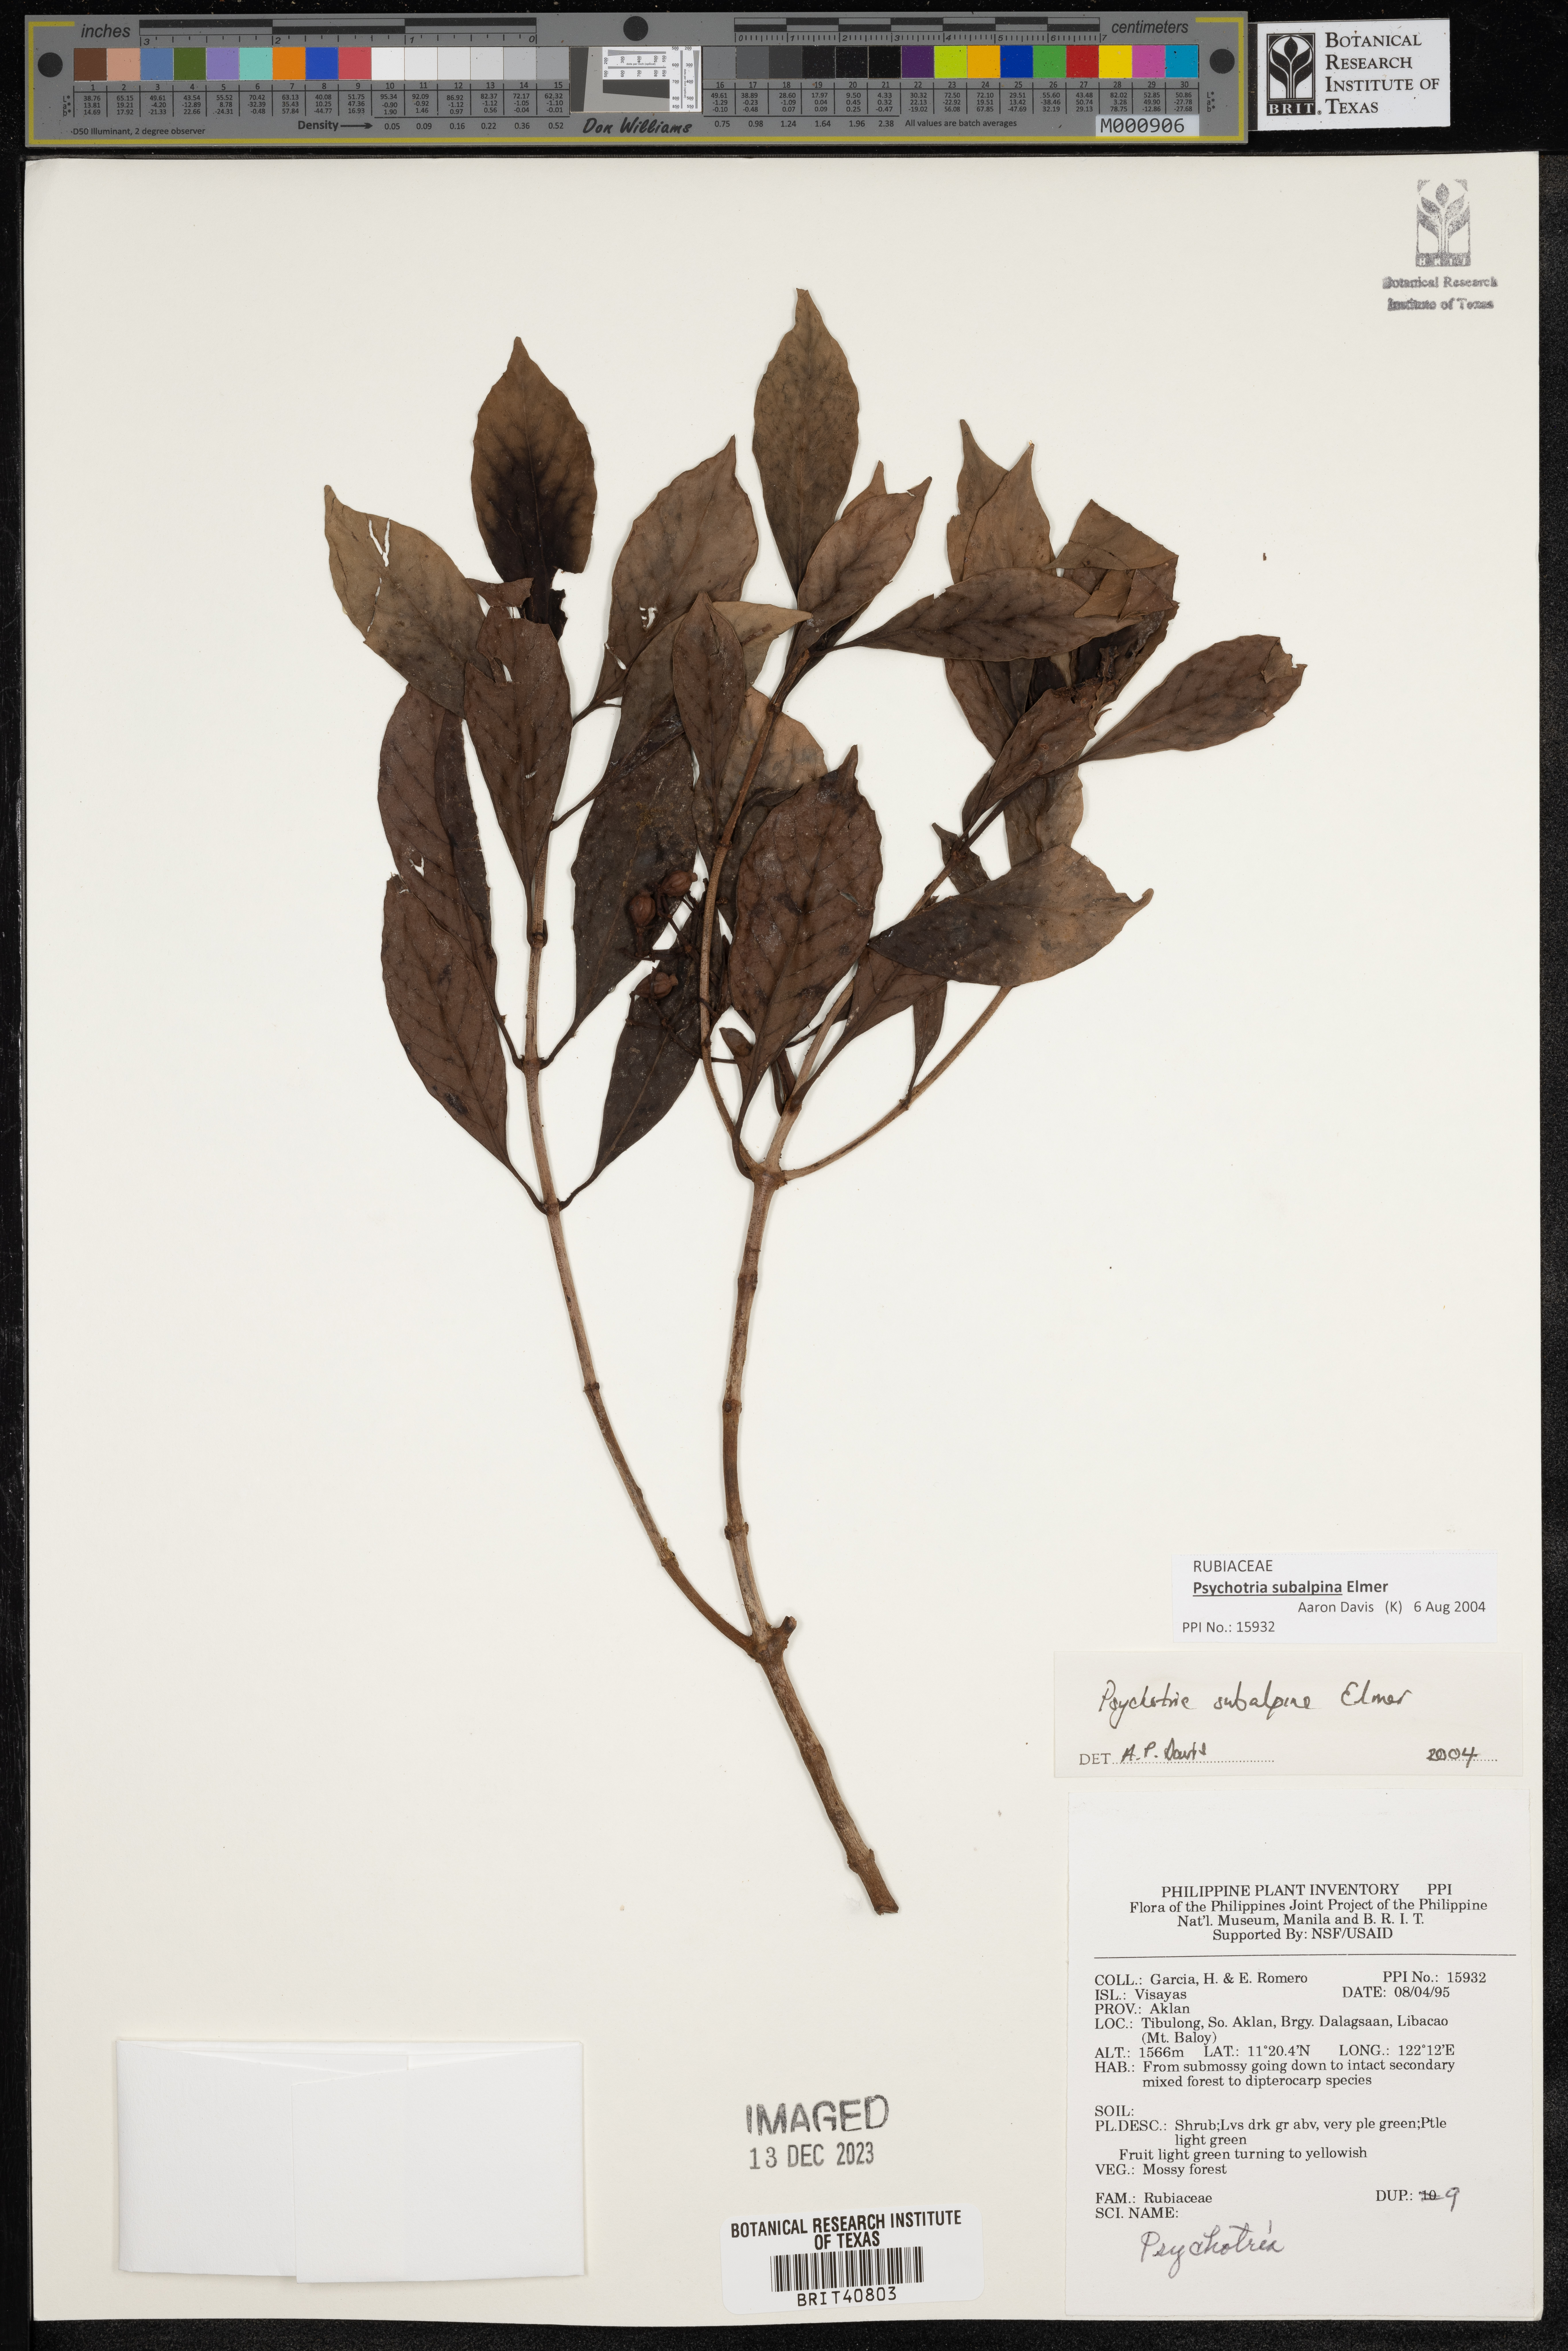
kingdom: Plantae
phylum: Tracheophyta
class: Magnoliopsida
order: Gentianales
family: Rubiaceae
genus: Psychotria
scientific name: Psychotria subalpina
